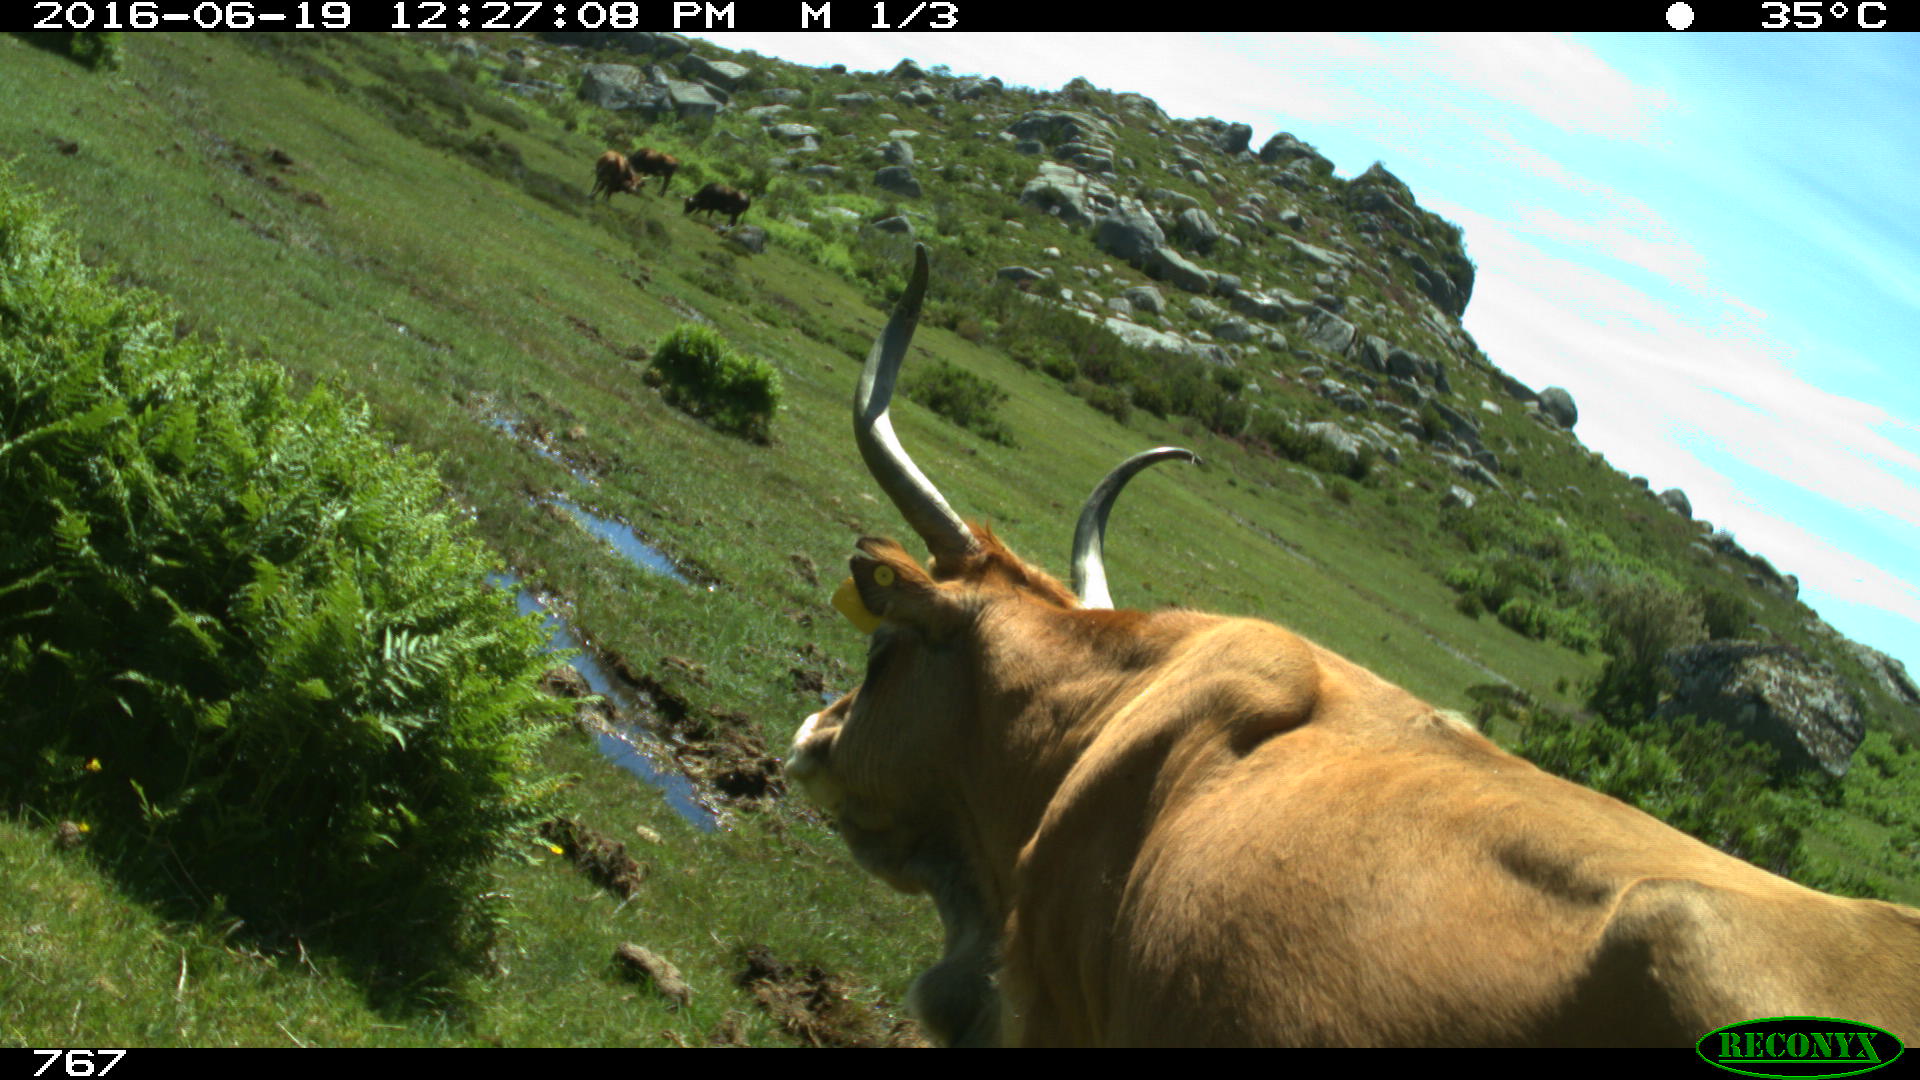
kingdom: Animalia
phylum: Chordata
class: Mammalia
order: Artiodactyla
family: Bovidae
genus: Bos
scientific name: Bos taurus
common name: Domesticated cattle
